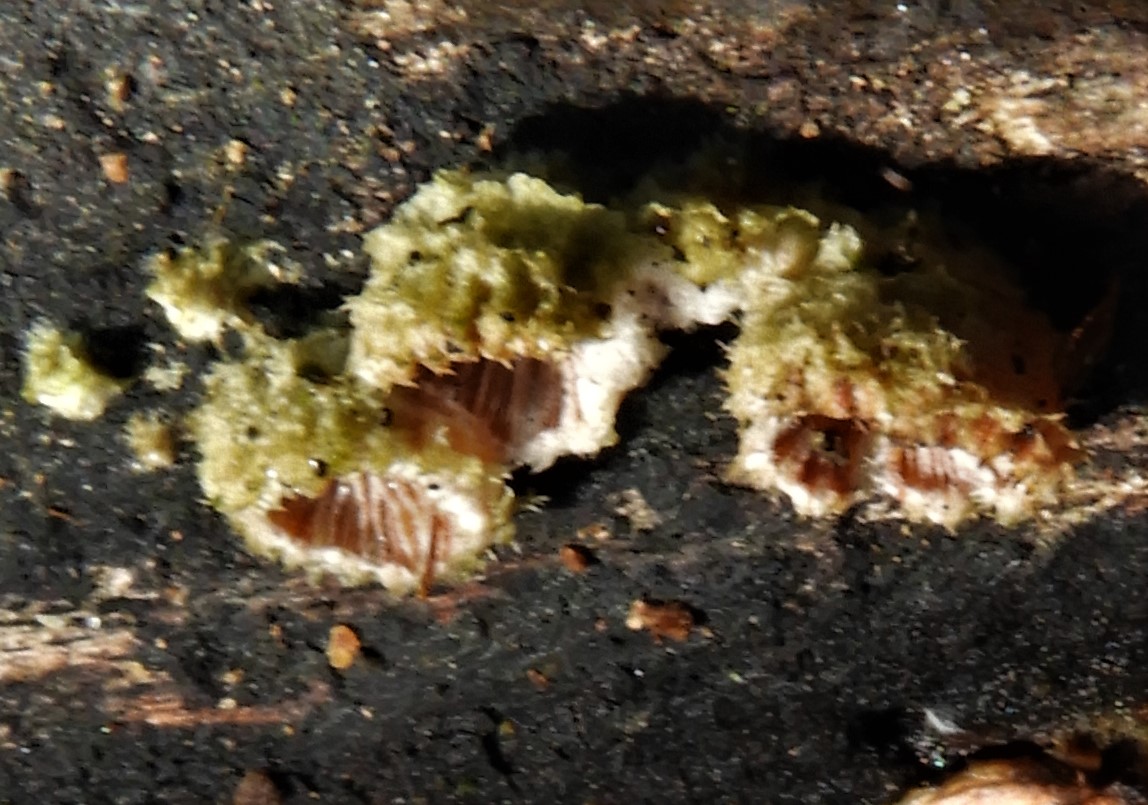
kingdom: Fungi
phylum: Basidiomycota
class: Agaricomycetes
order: Agaricales
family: Schizophyllaceae
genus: Schizophyllum
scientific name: Schizophyllum commune
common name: kløvblad
